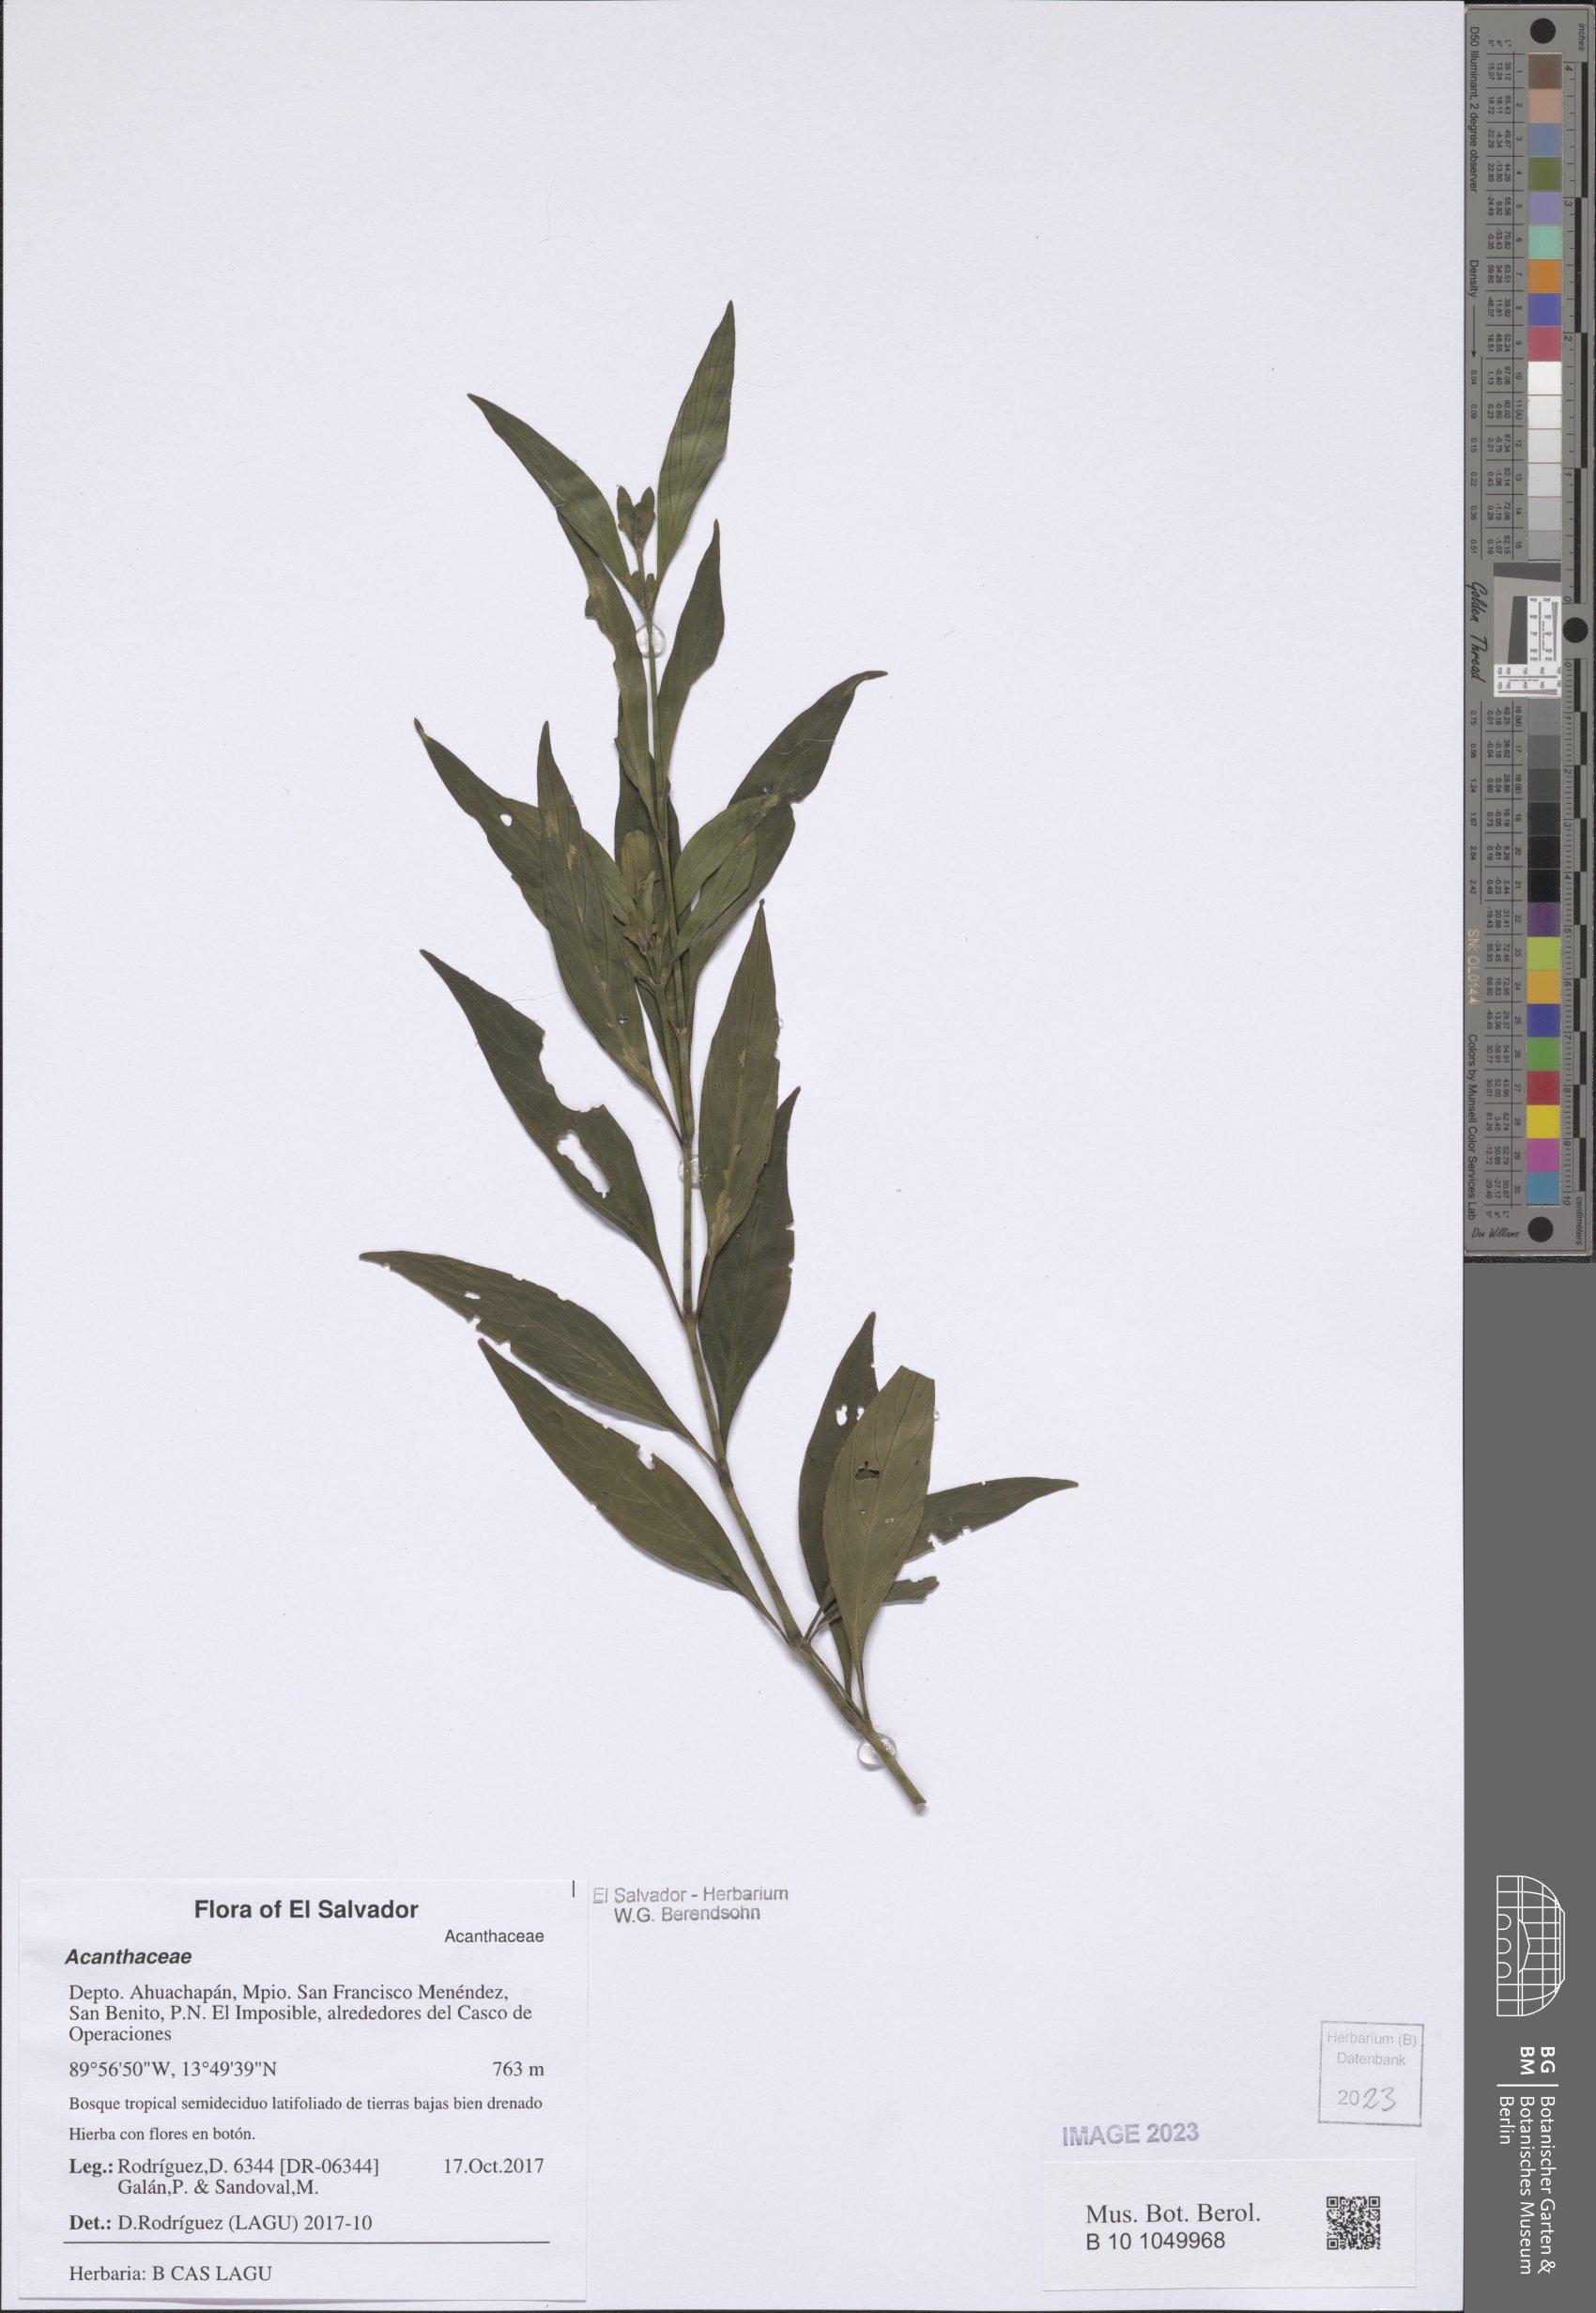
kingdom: Plantae
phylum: Tracheophyta
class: Magnoliopsida
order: Lamiales
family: Acanthaceae
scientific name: Acanthaceae
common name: Acanthaceae
